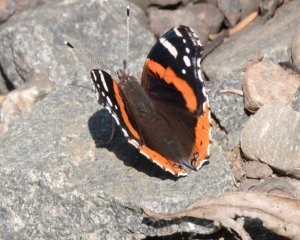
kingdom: Animalia
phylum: Arthropoda
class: Insecta
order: Lepidoptera
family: Nymphalidae
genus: Vanessa
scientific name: Vanessa atalanta
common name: Red Admiral
